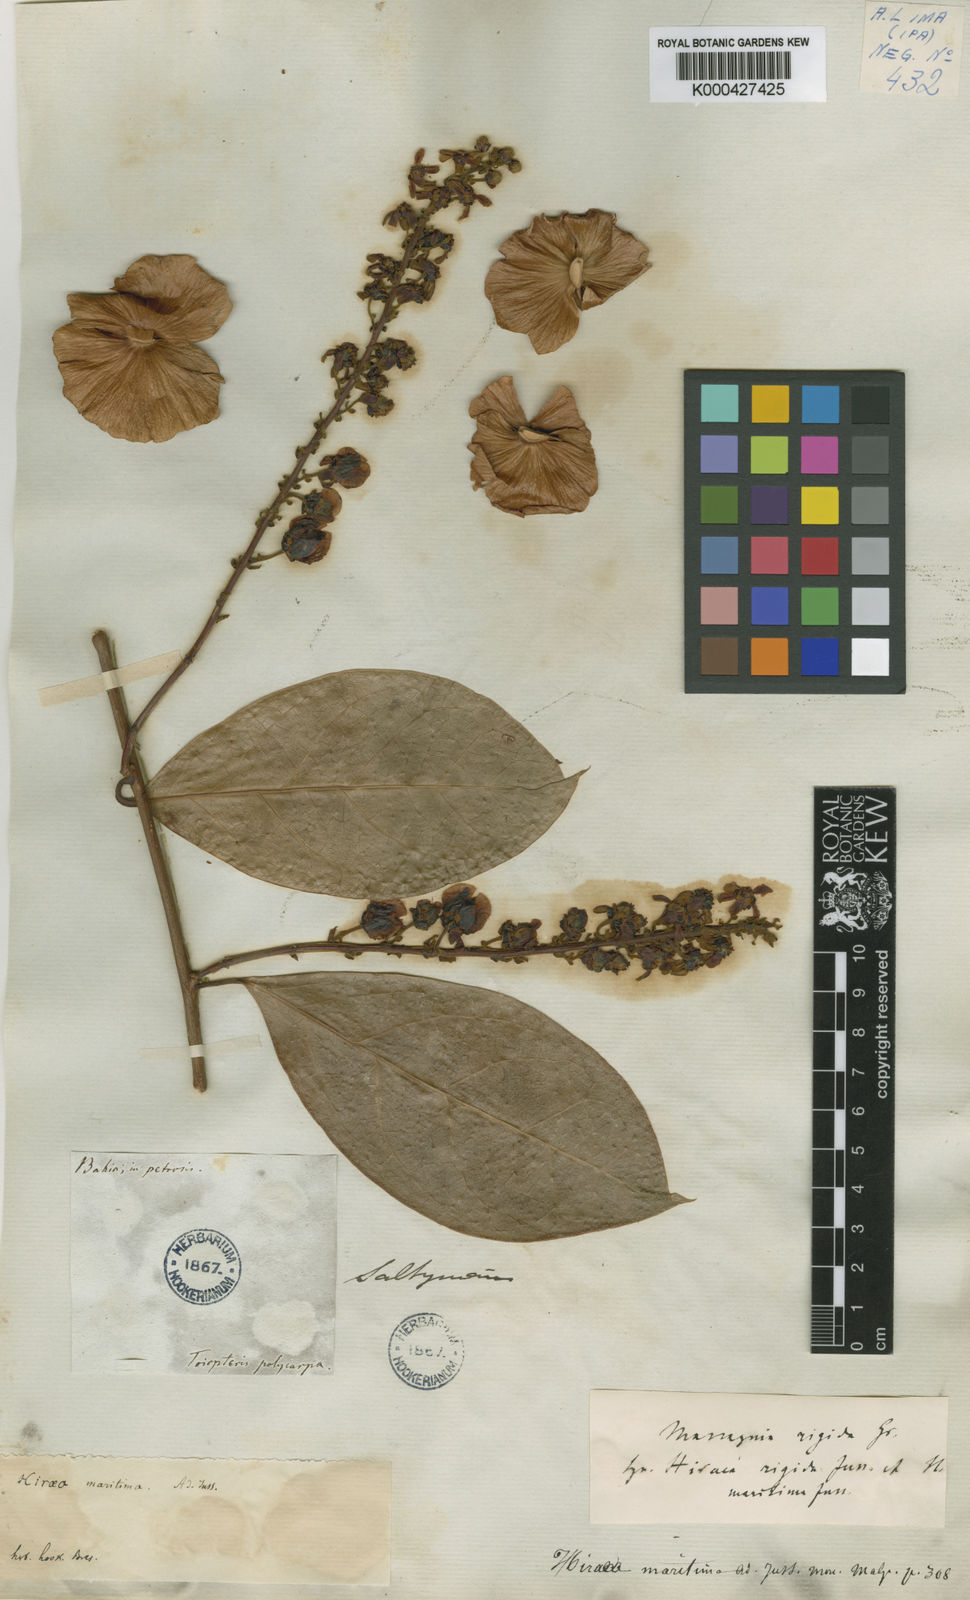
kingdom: Plantae
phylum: Tracheophyta
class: Magnoliopsida
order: Malpighiales
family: Malpighiaceae
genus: Amorimia
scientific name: Amorimia rigida
